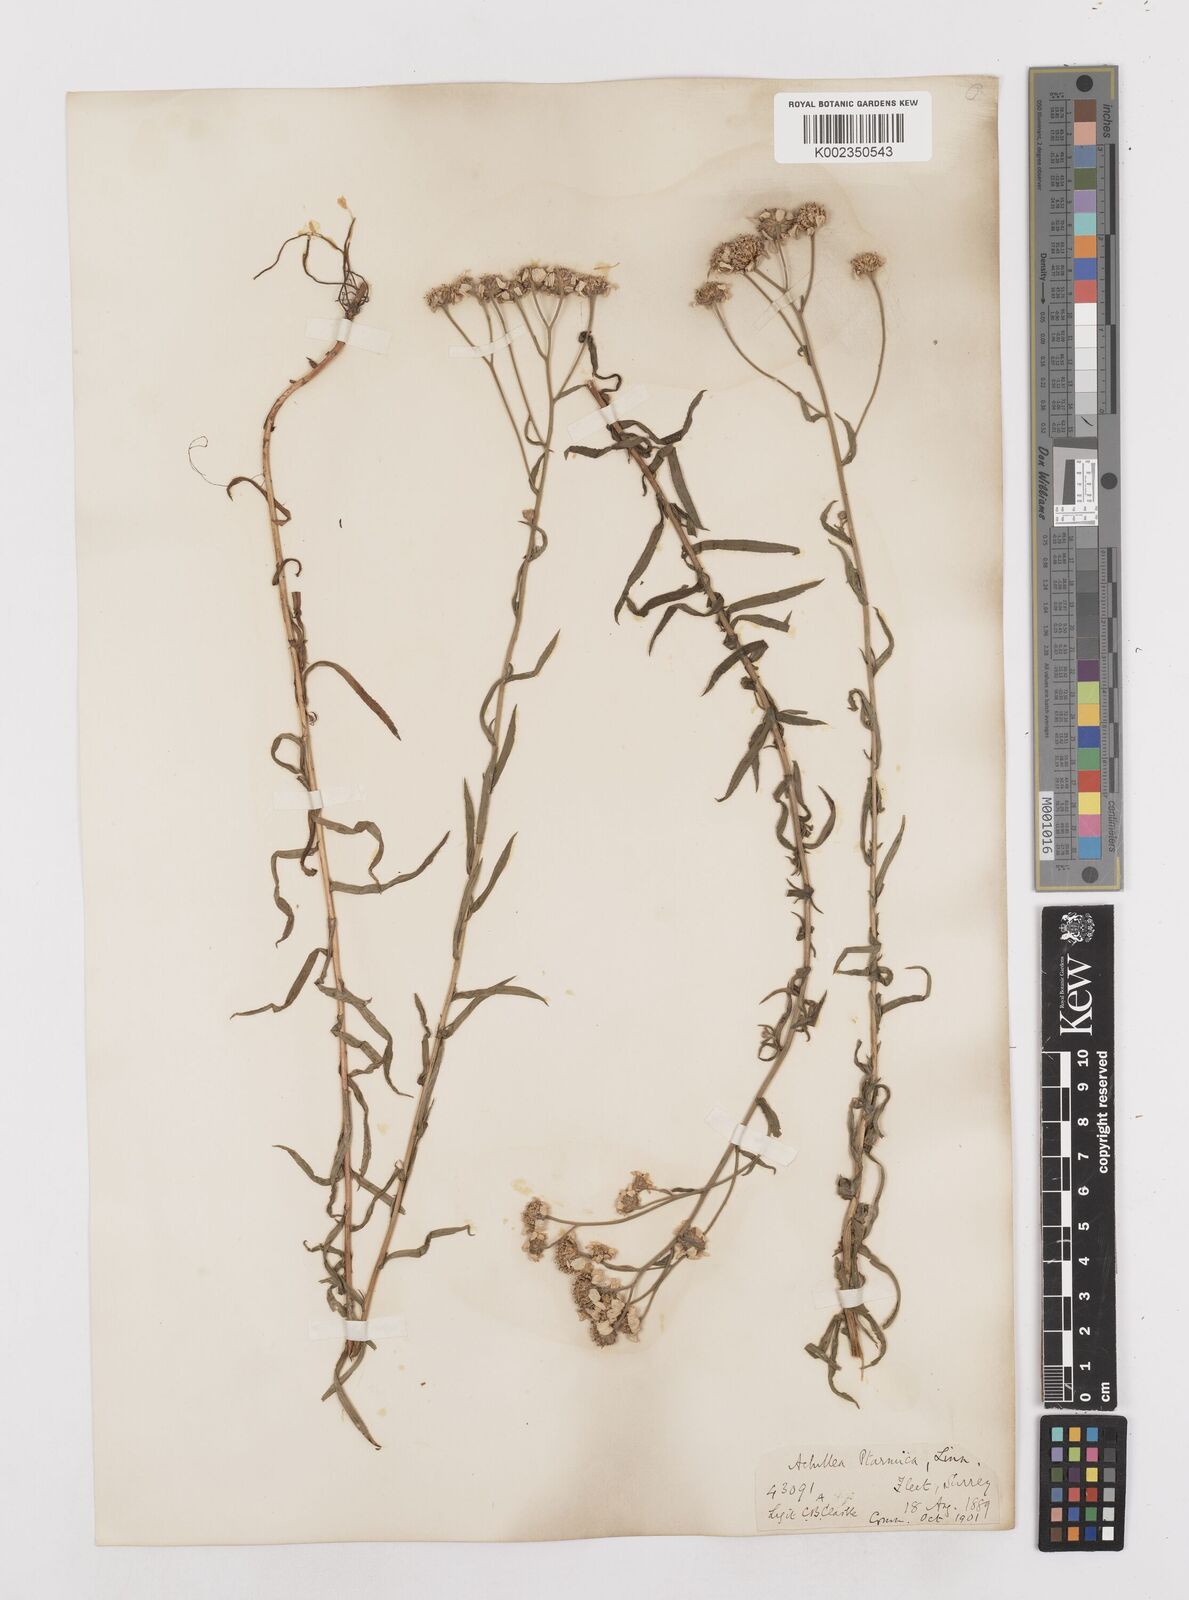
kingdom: Plantae
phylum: Tracheophyta
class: Magnoliopsida
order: Asterales
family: Asteraceae
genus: Achillea
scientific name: Achillea ptarmica
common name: Sneezeweed
